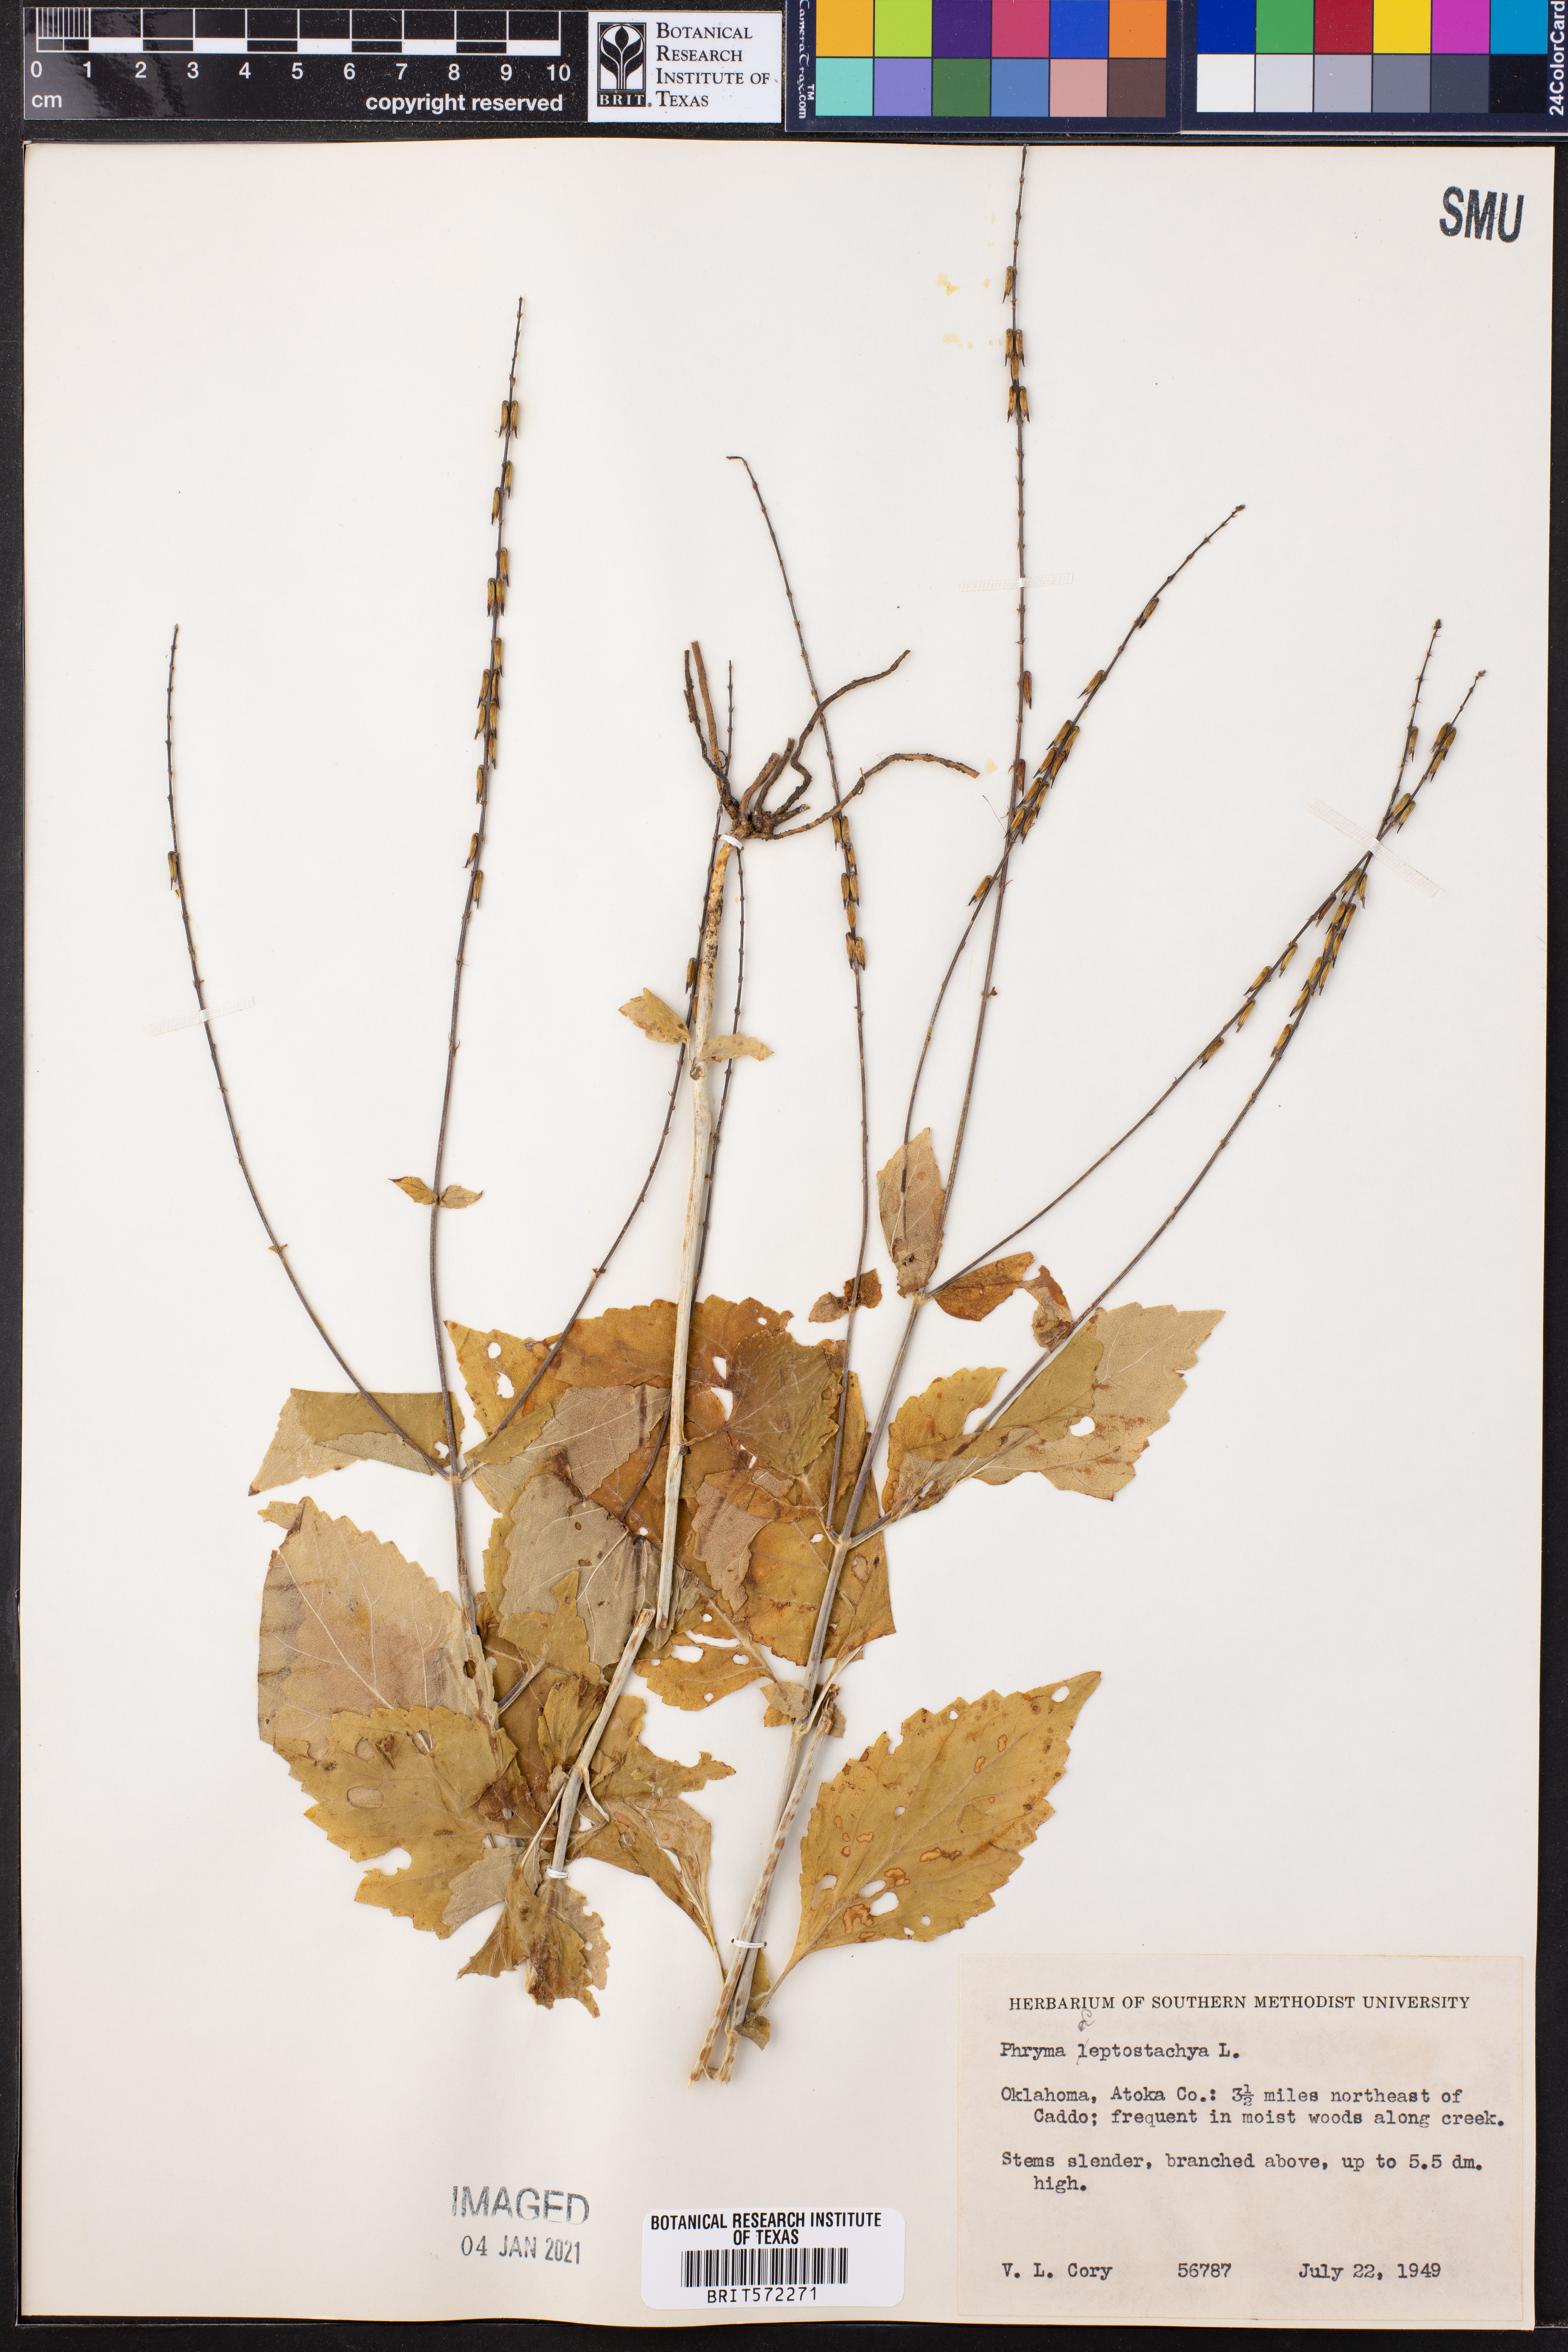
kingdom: Plantae
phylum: Tracheophyta
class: Magnoliopsida
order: Lamiales
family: Phrymaceae
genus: Phryma
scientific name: Phryma leptostachya
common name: American lopseed
